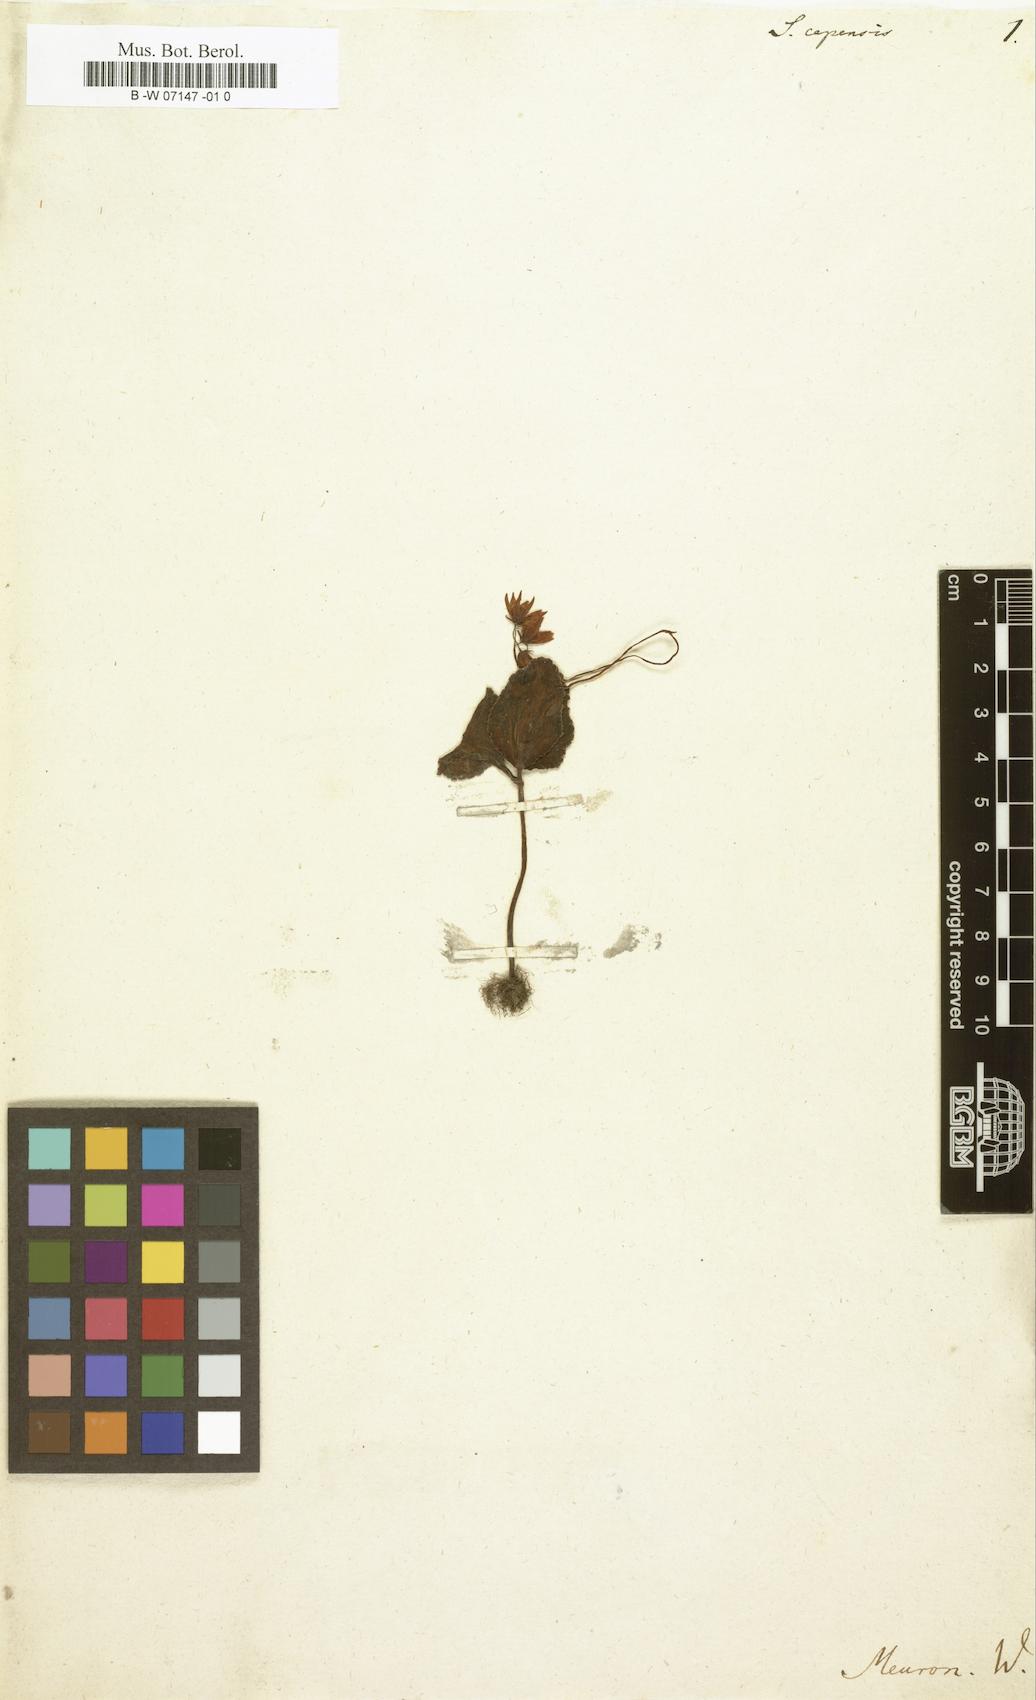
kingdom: Plantae
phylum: Tracheophyta
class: Magnoliopsida
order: Saxifragales
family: Crassulaceae
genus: Crassula
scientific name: Crassula capensis
